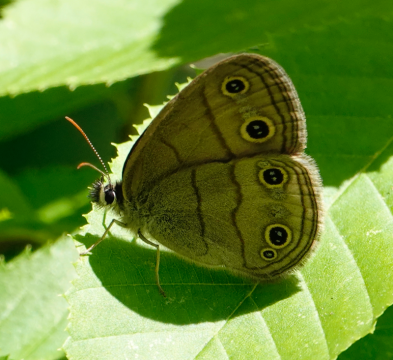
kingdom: Animalia
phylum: Arthropoda
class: Insecta
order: Lepidoptera
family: Nymphalidae
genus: Euptychia
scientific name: Euptychia cymela
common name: Little Wood Satyr
